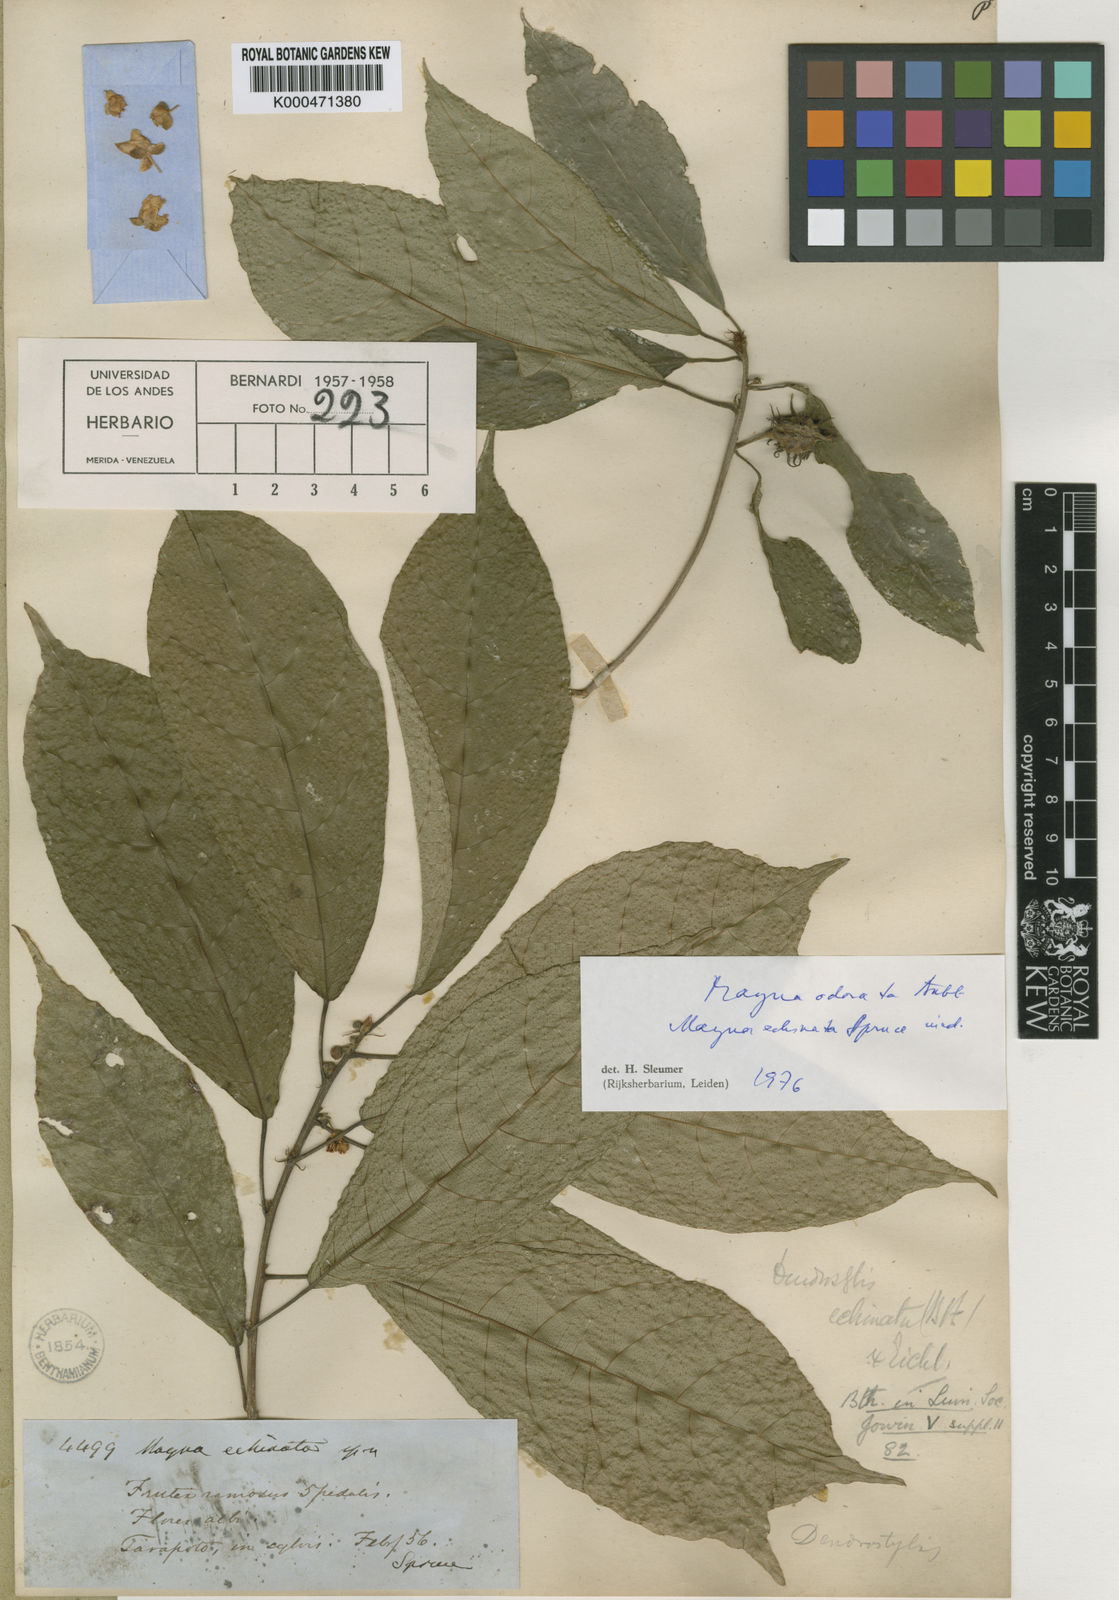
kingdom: Plantae
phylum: Tracheophyta
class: Magnoliopsida
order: Malpighiales
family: Achariaceae
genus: Mayna
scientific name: Mayna odorata
